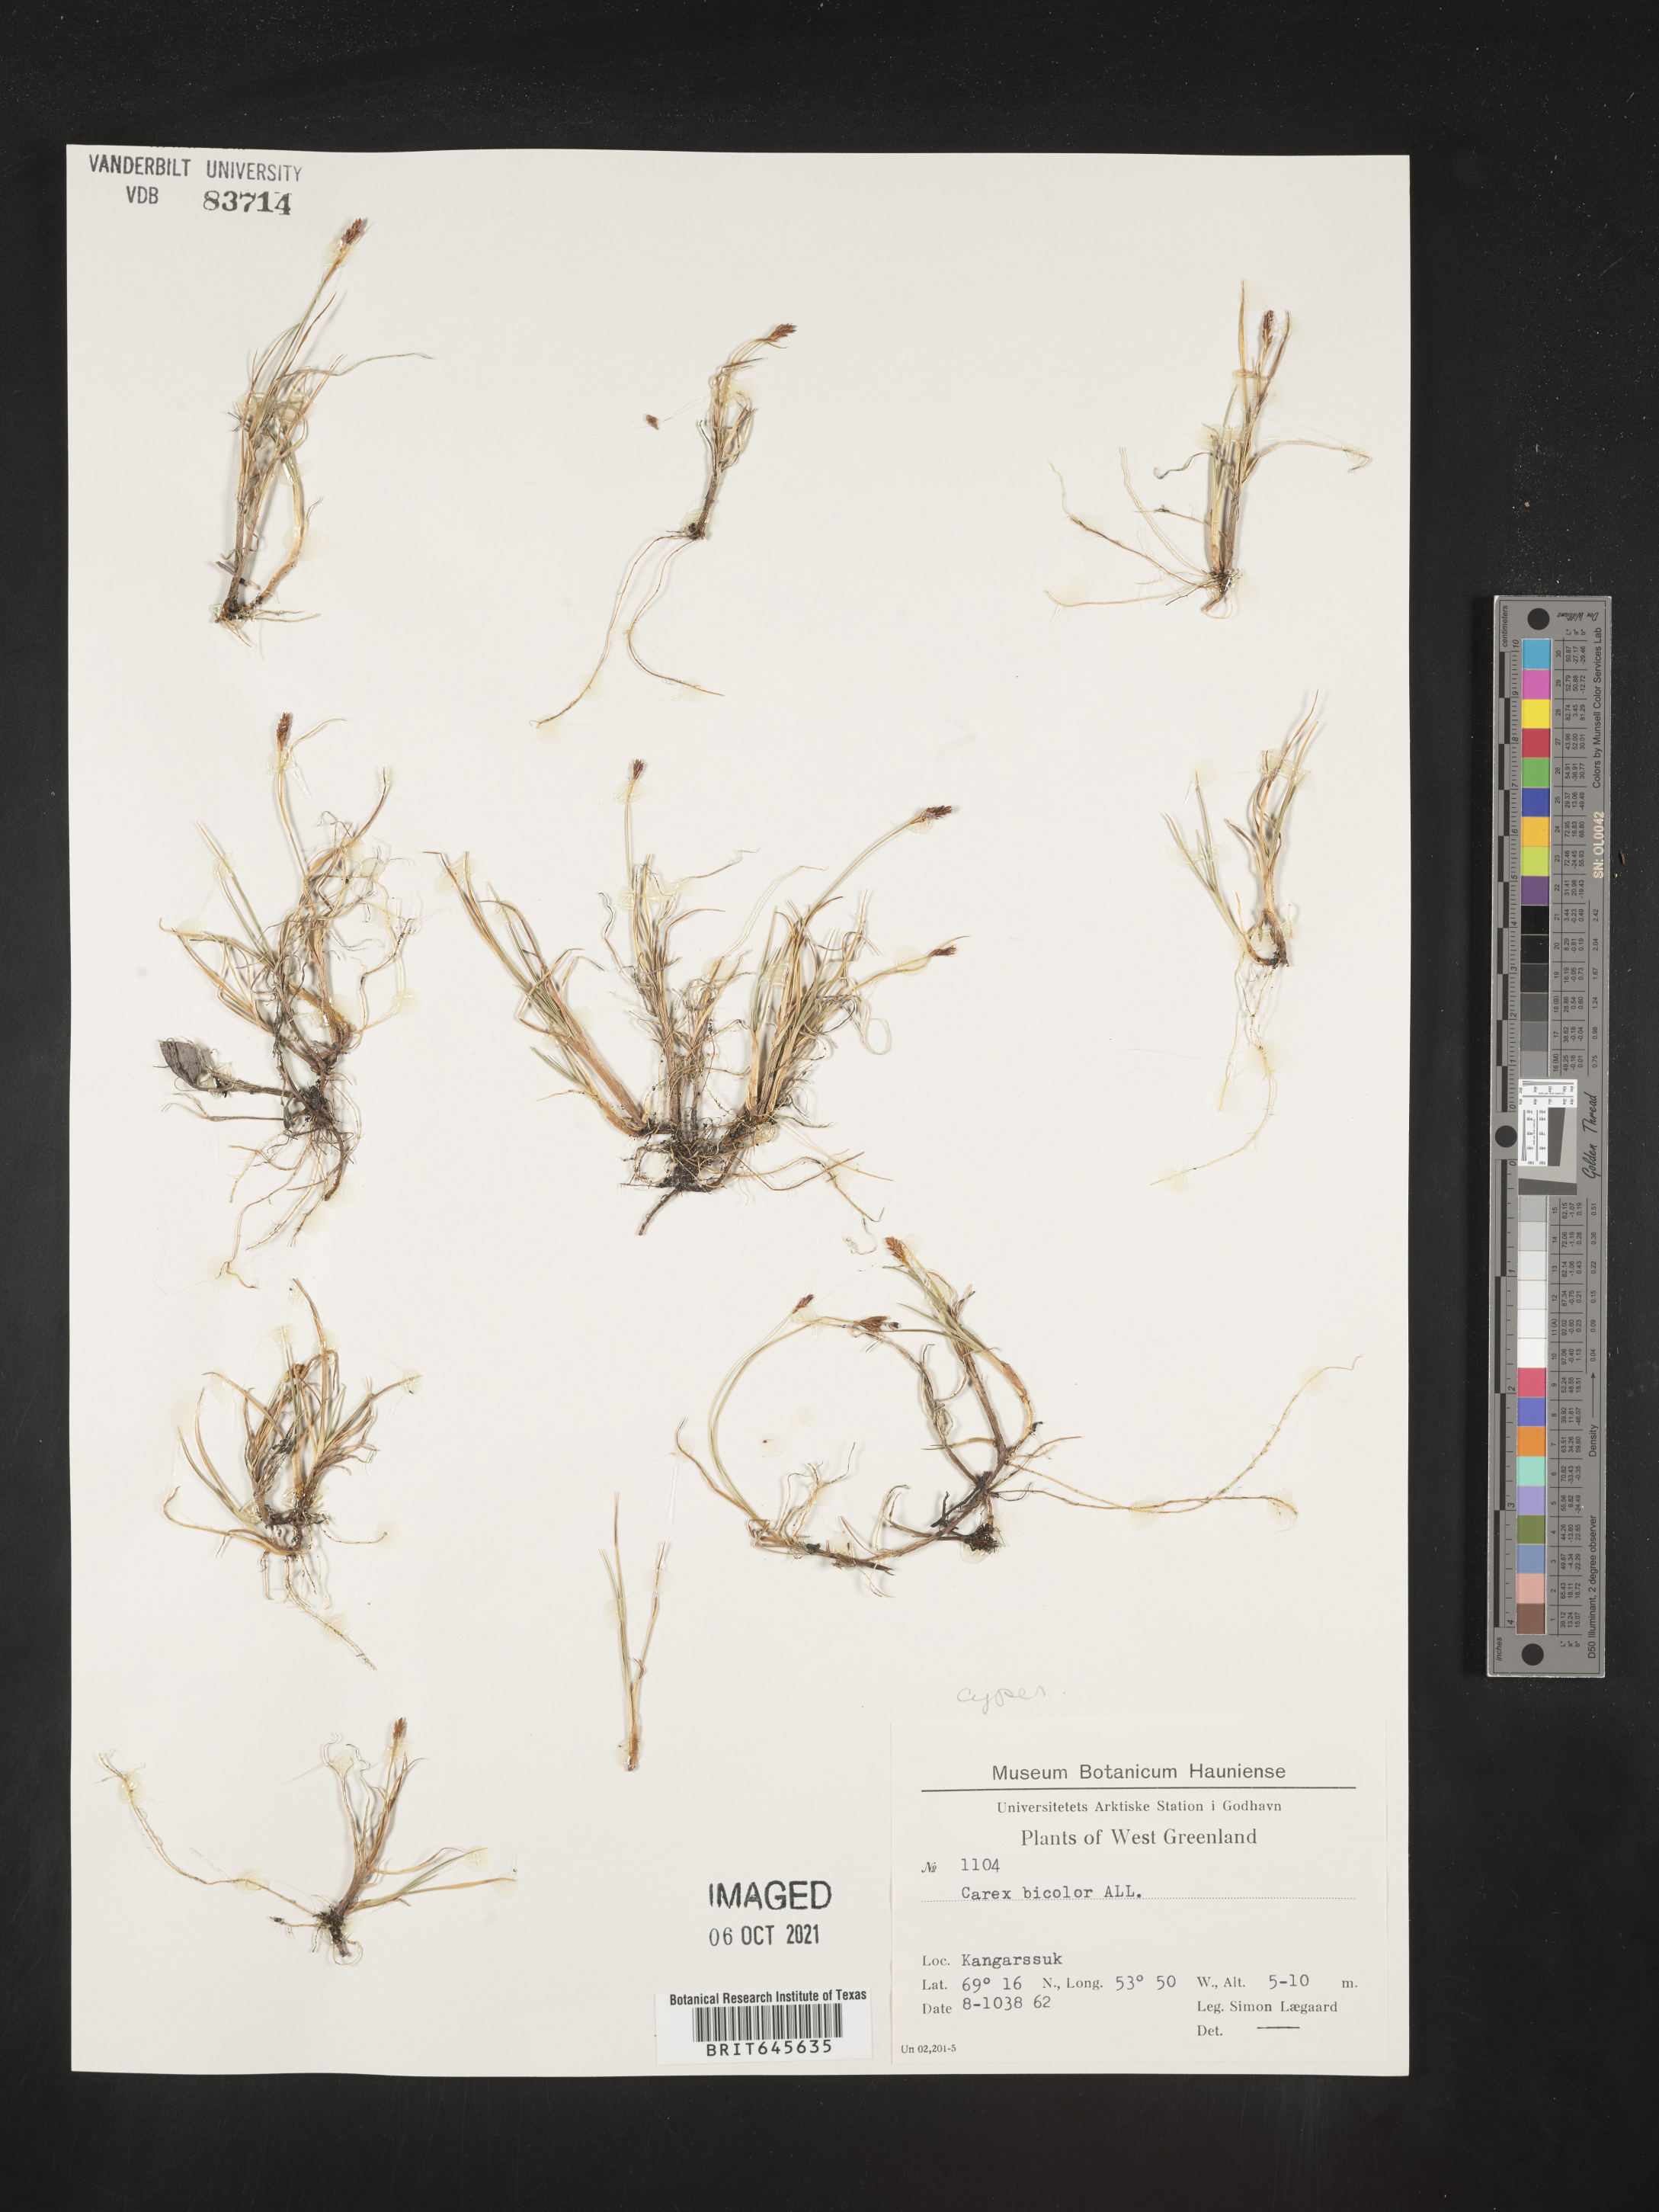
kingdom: Plantae
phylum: Tracheophyta
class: Liliopsida
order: Poales
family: Cyperaceae
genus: Carex
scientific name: Carex bicolor
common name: Bicoloured sedge
